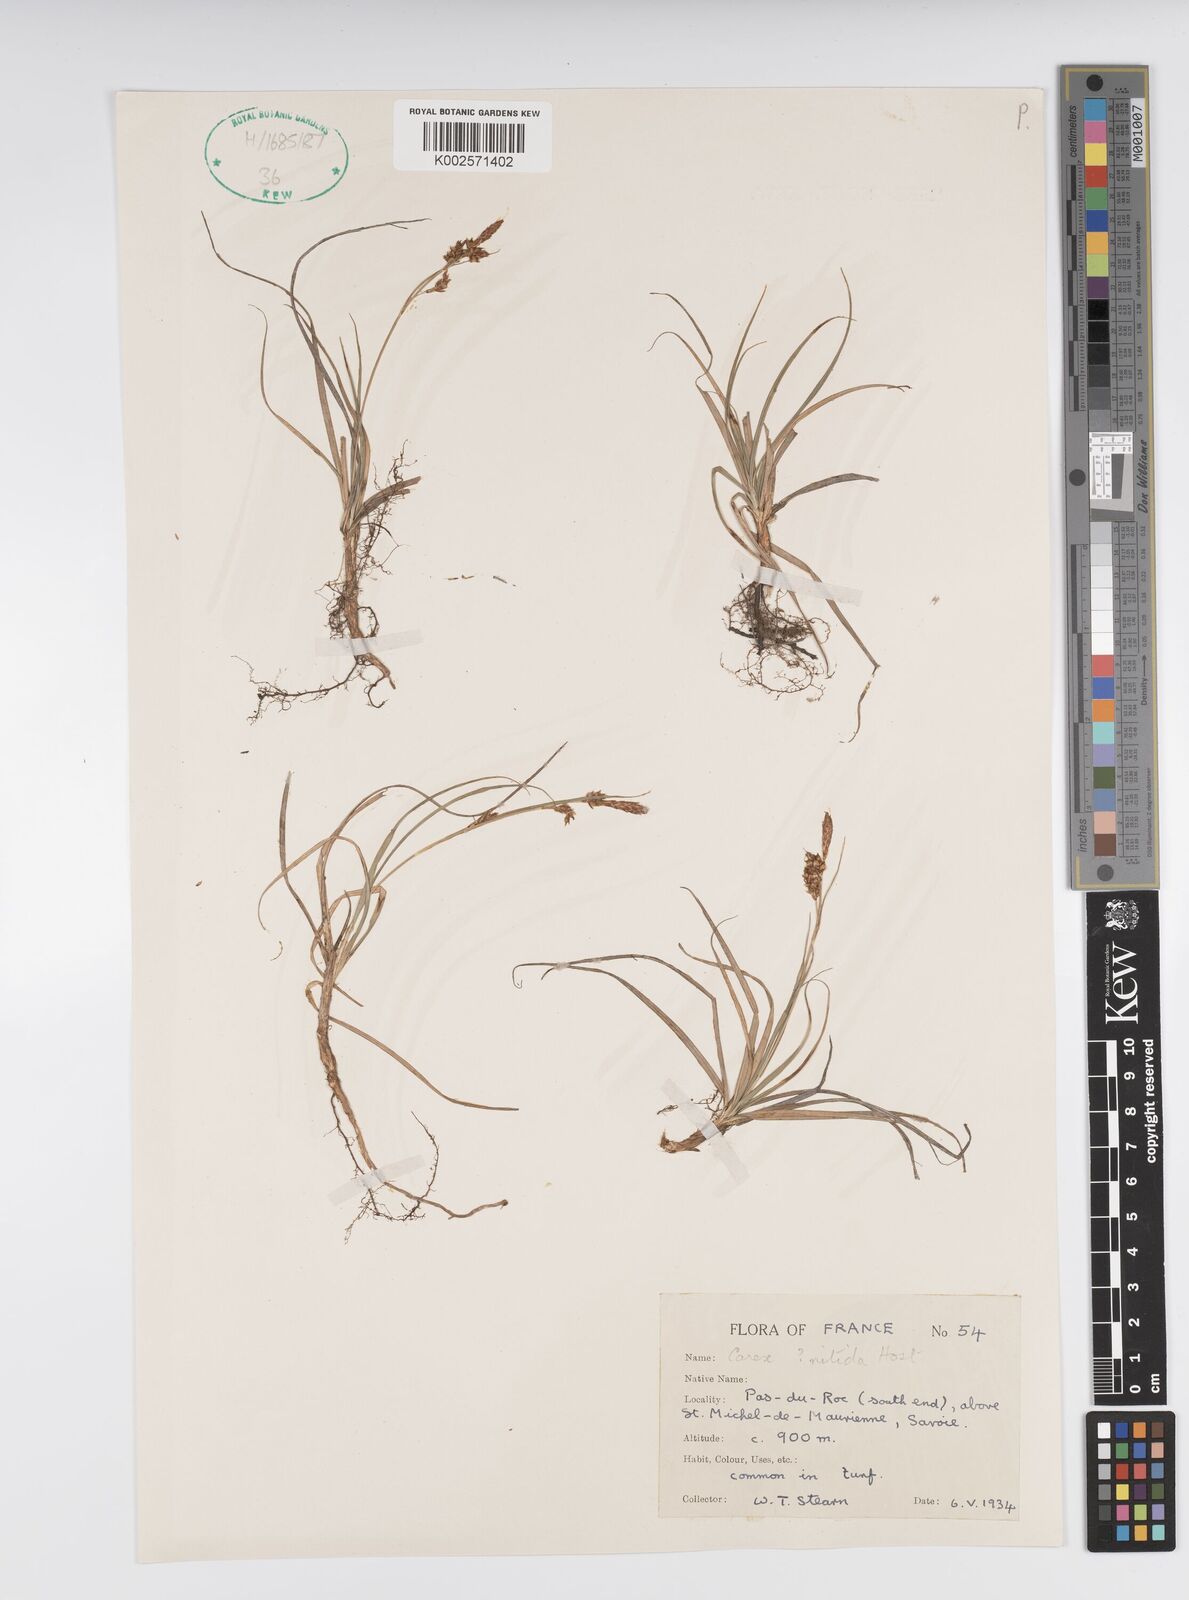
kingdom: Plantae
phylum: Tracheophyta
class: Liliopsida
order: Poales
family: Cyperaceae
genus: Carex
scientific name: Carex liparocarpos
